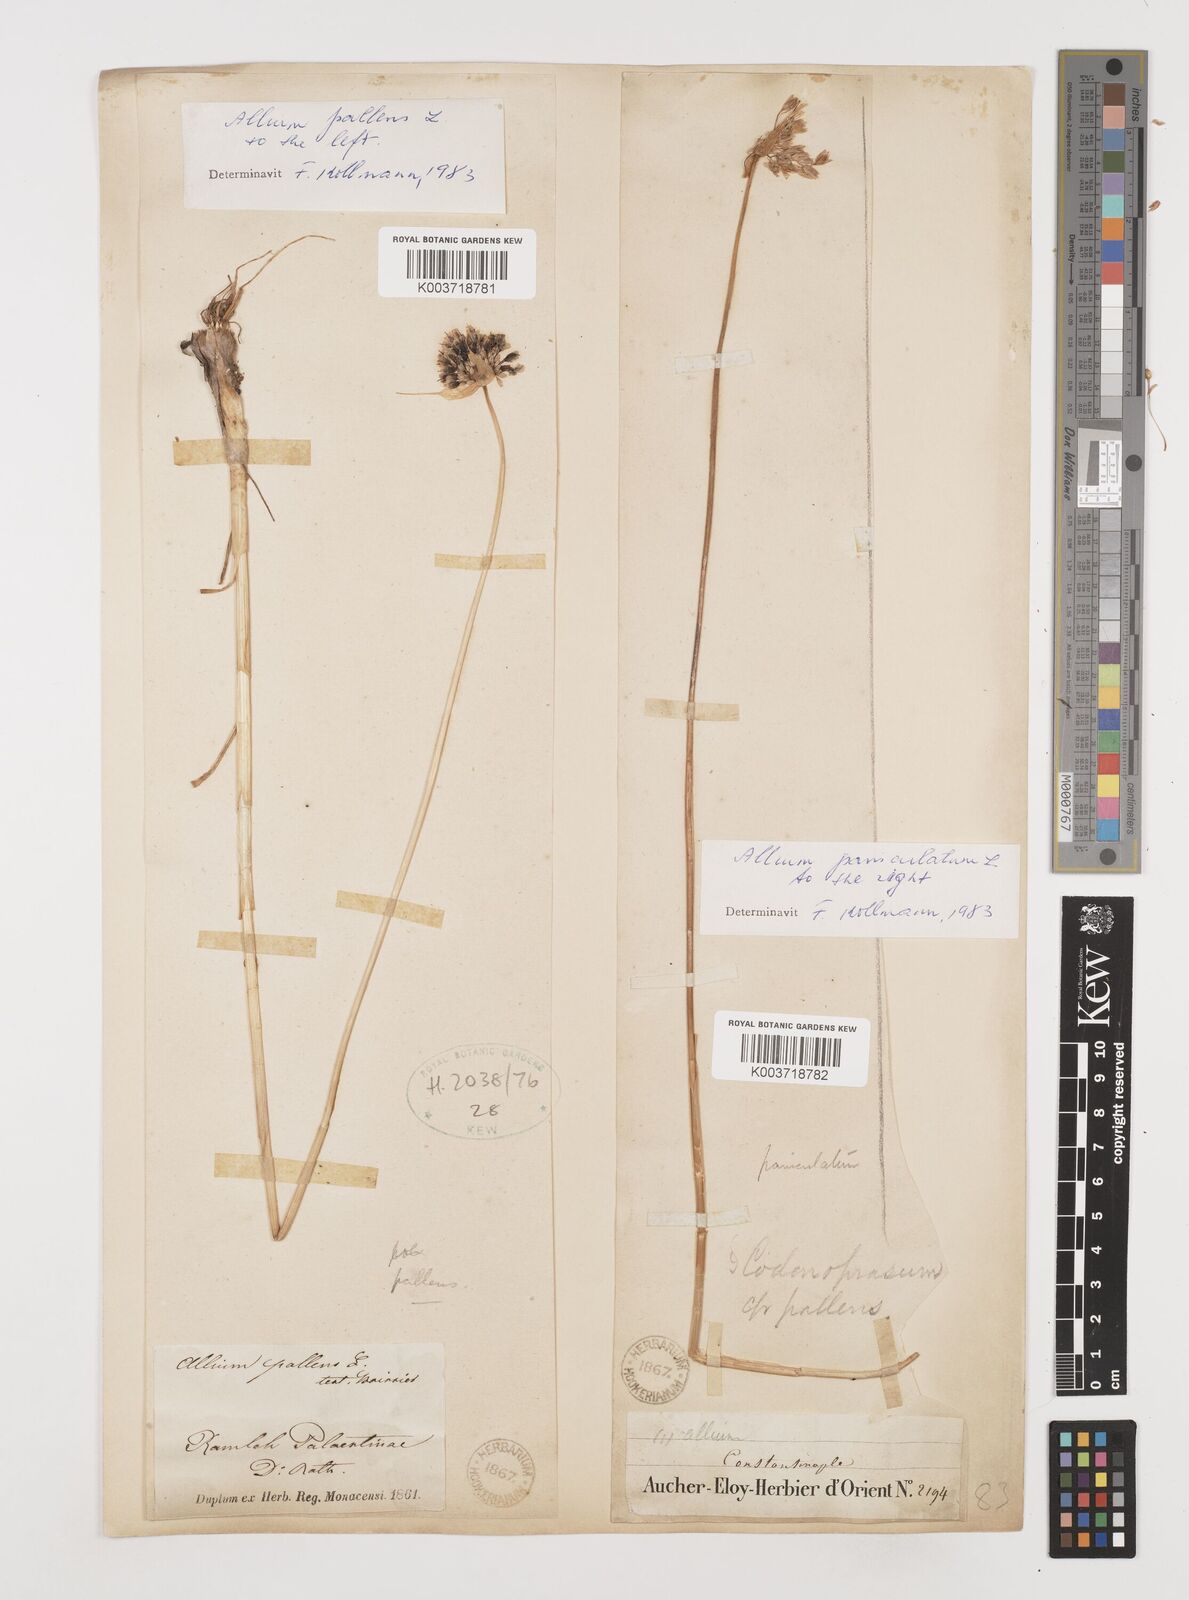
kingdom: Plantae
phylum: Tracheophyta
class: Liliopsida
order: Asparagales
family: Amaryllidaceae
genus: Allium
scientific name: Allium flavum
